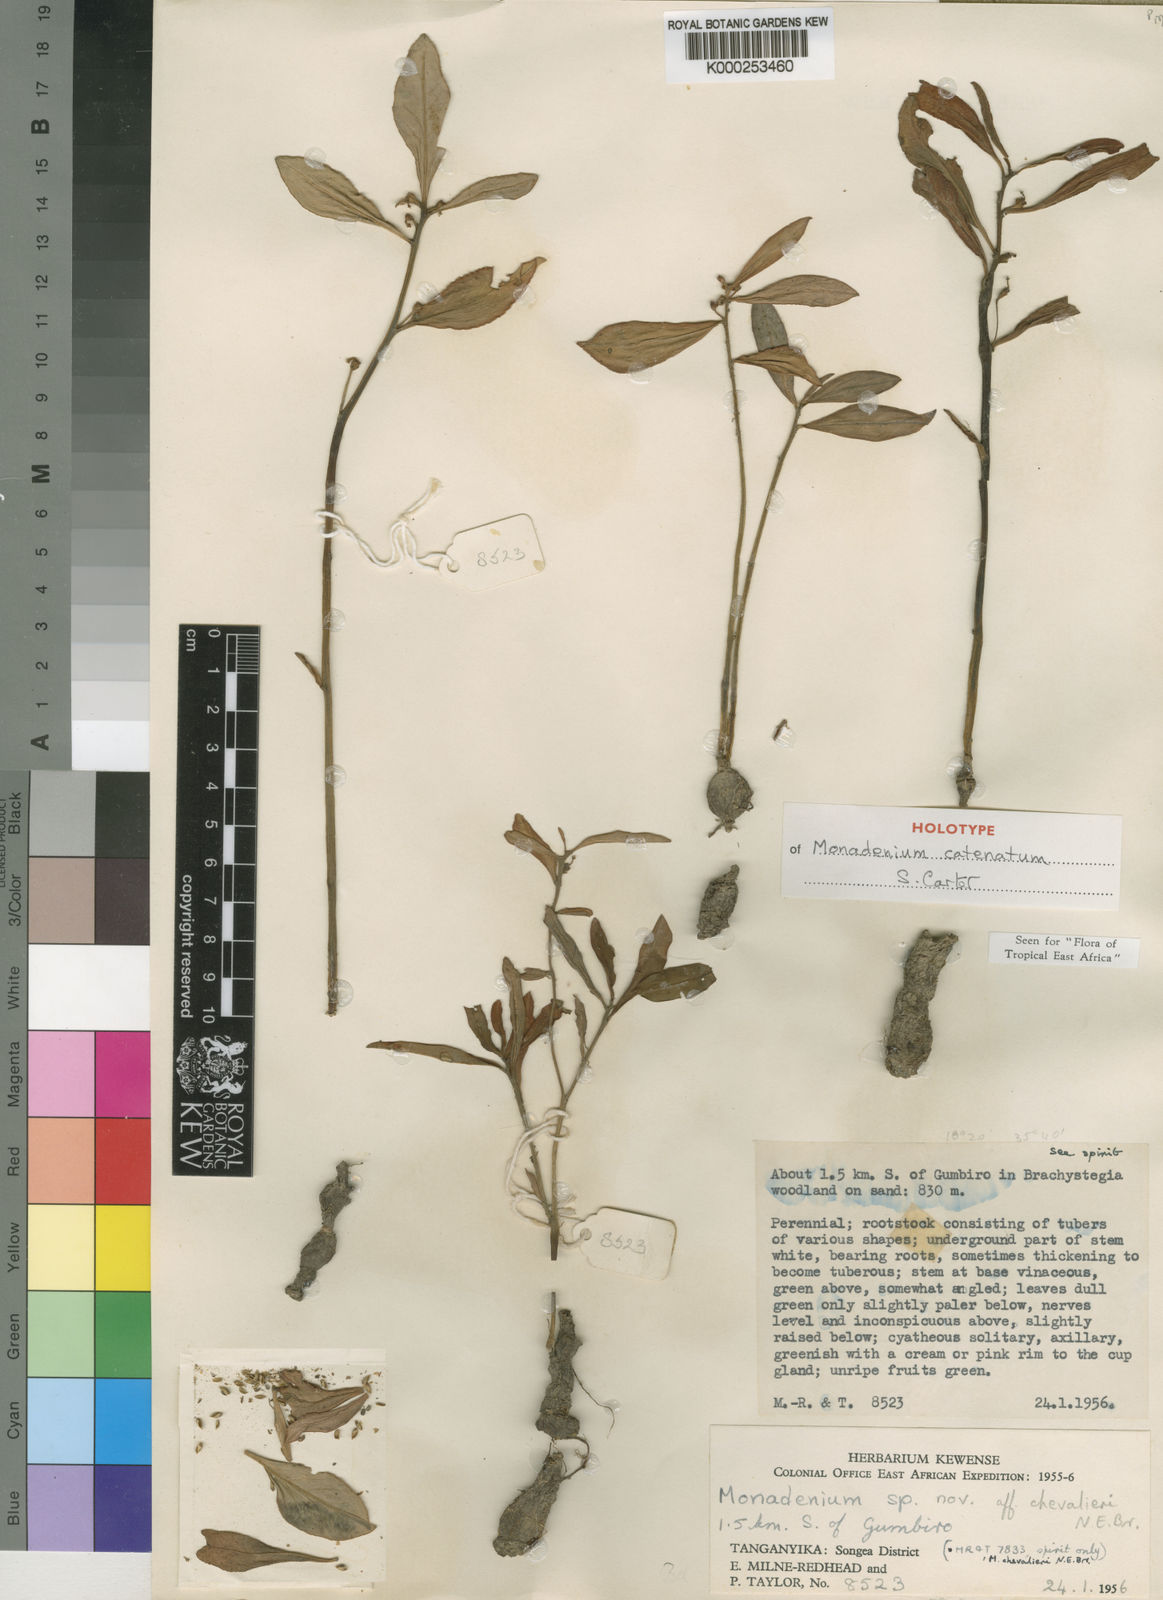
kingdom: Plantae
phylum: Tracheophyta
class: Magnoliopsida
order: Malpighiales
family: Euphorbiaceae
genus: Euphorbia
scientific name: Euphorbia catenata
